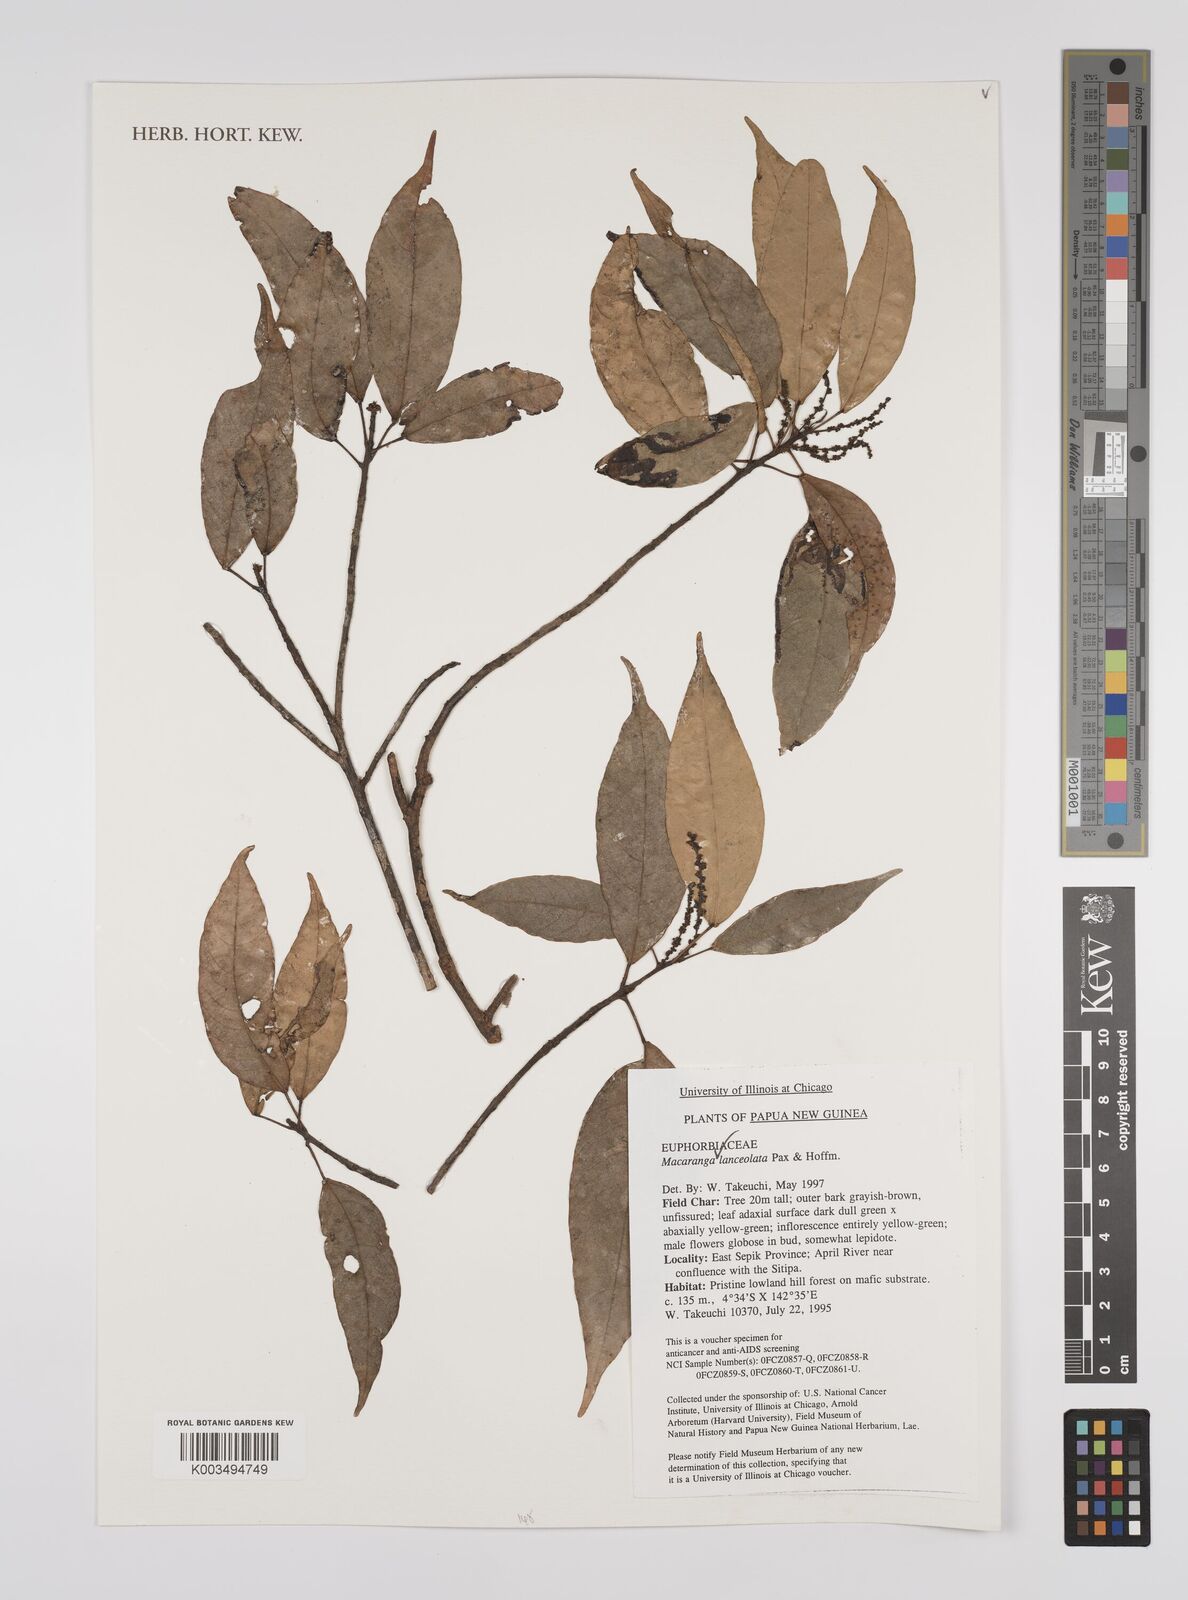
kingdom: Plantae
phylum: Tracheophyta
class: Magnoliopsida
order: Malpighiales
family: Euphorbiaceae
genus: Macaranga
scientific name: Macaranga lanceolata
